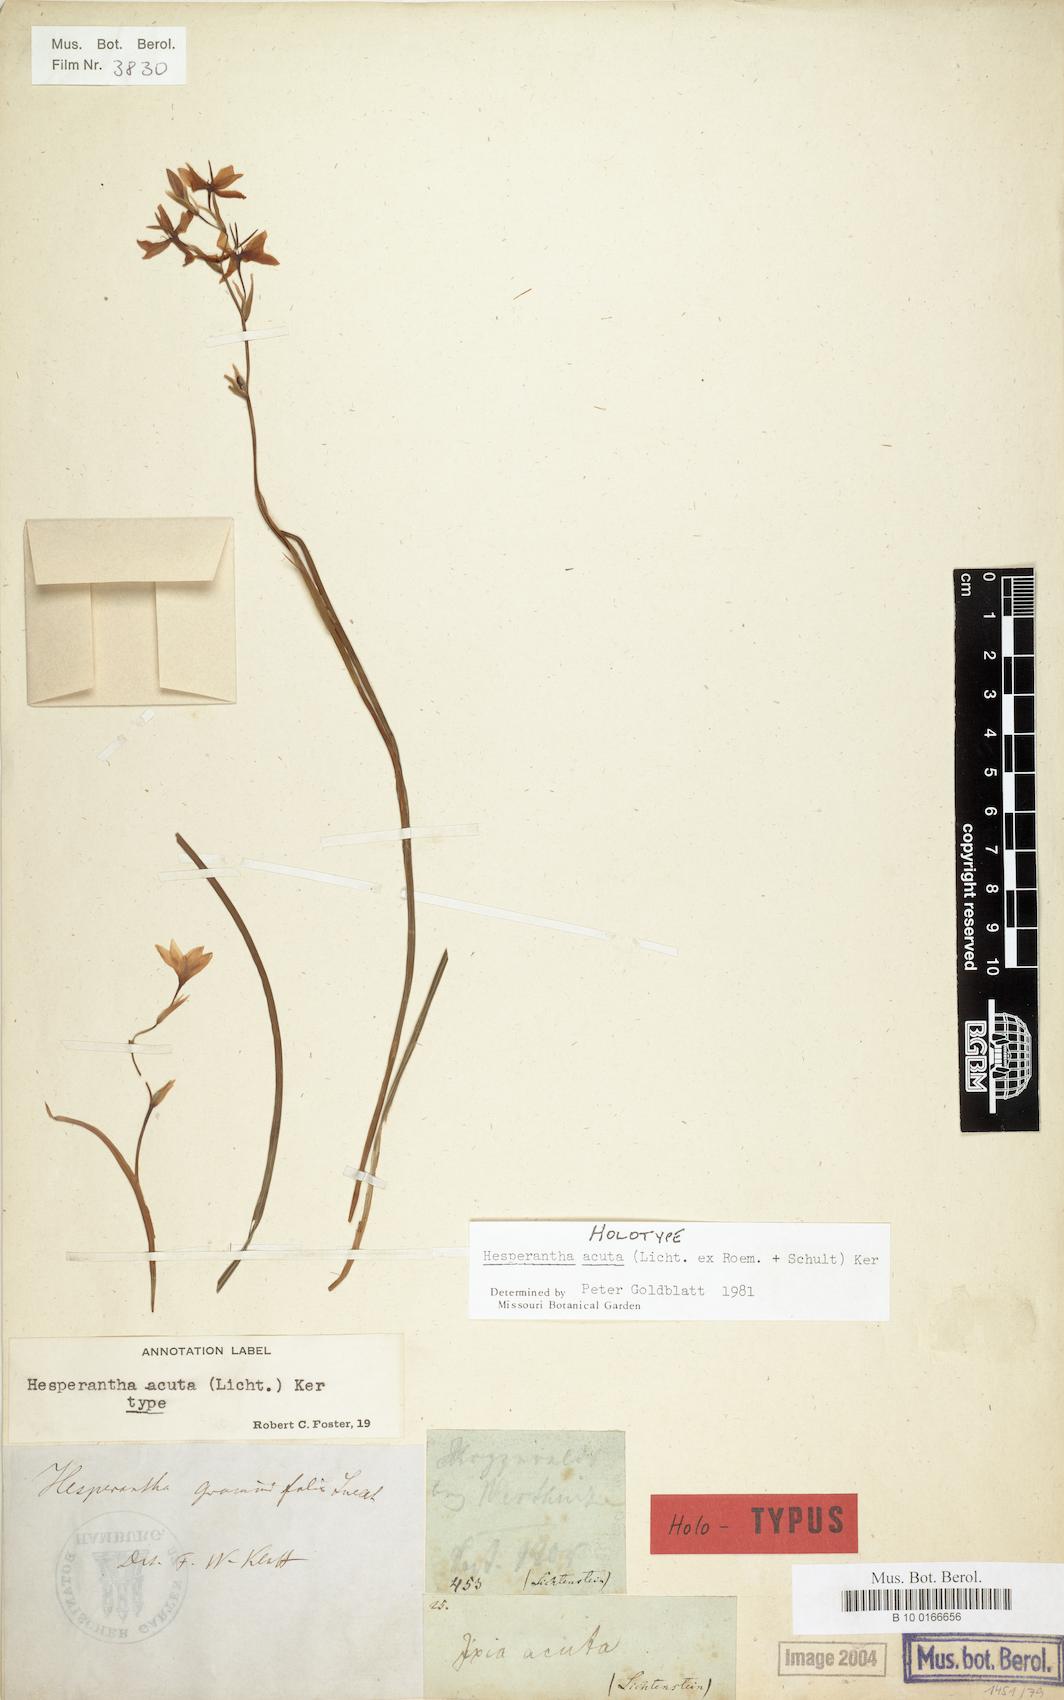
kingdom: Plantae
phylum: Tracheophyta
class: Liliopsida
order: Asparagales
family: Iridaceae
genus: Hesperantha
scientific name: Hesperantha acuta
